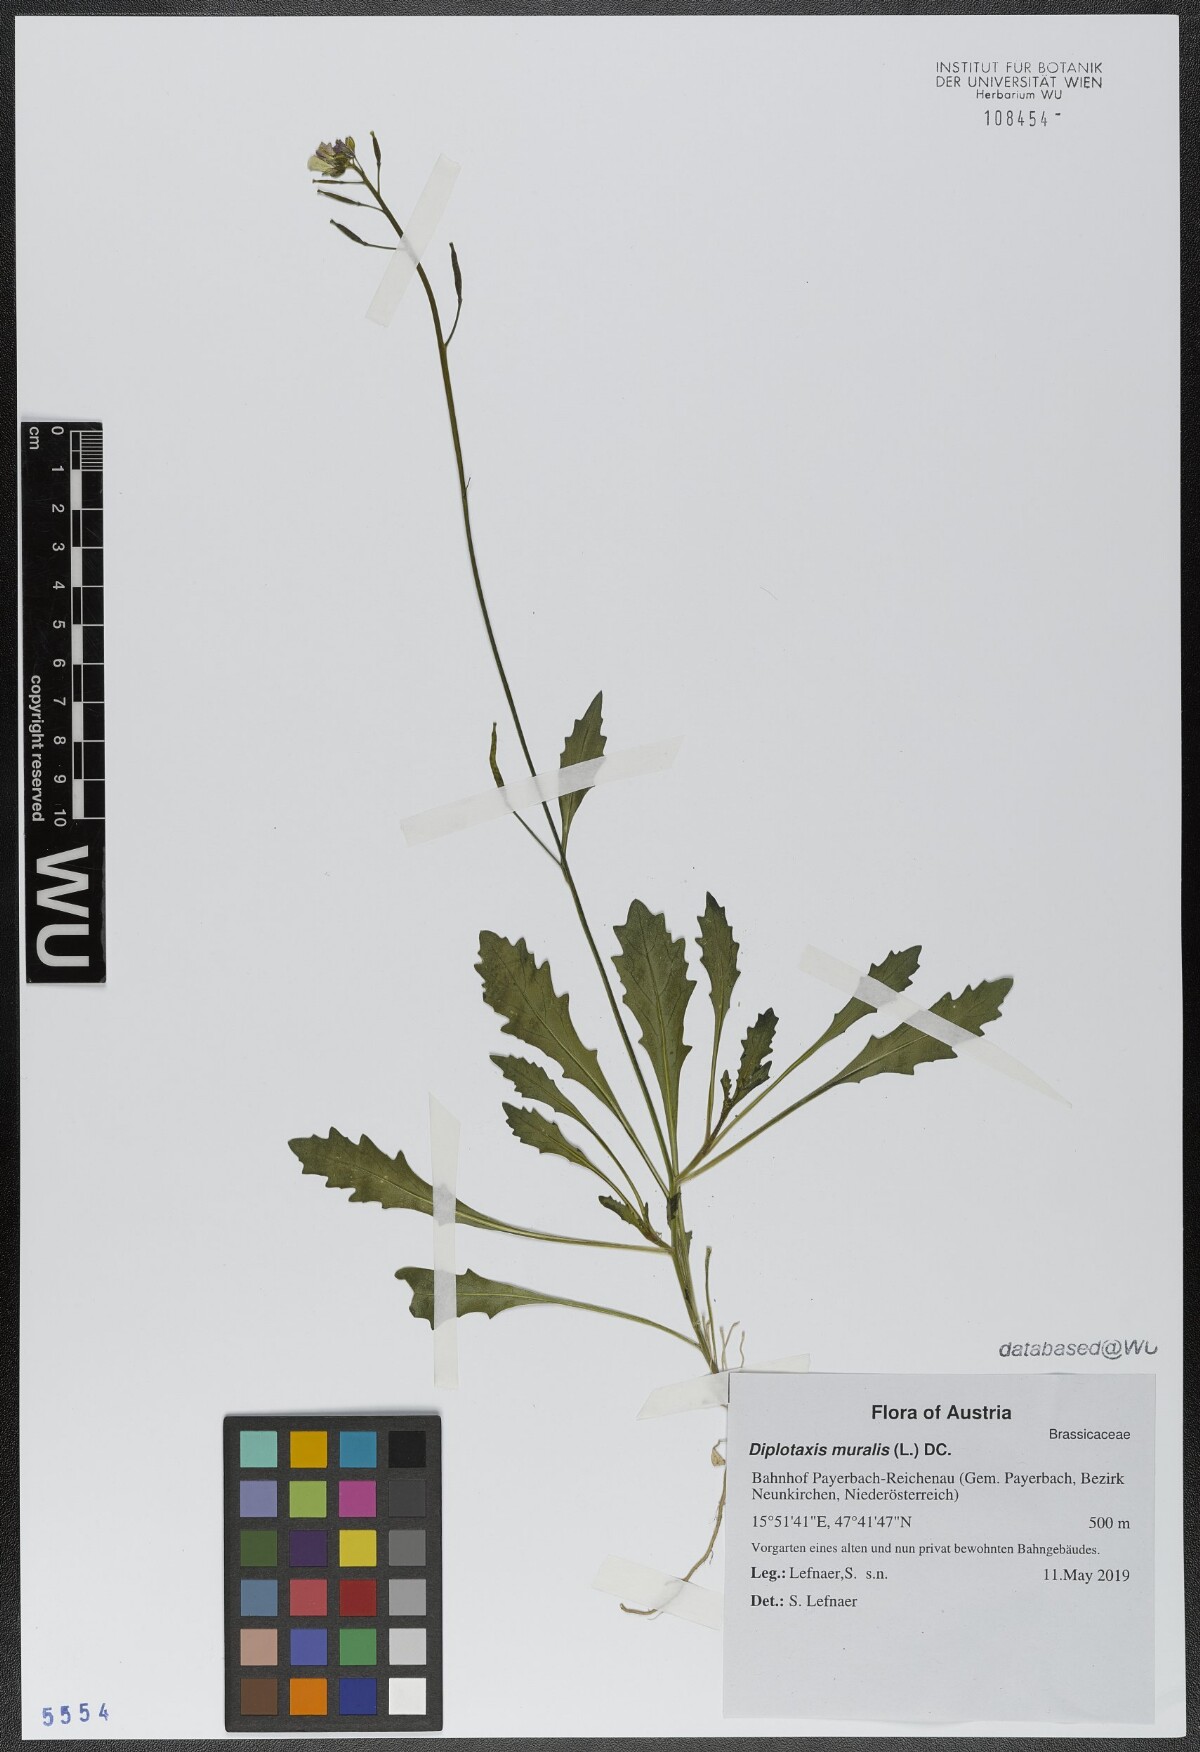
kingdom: Plantae
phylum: Tracheophyta
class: Magnoliopsida
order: Brassicales
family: Brassicaceae
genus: Diplotaxis
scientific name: Diplotaxis muralis
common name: Annual wall-rocket
